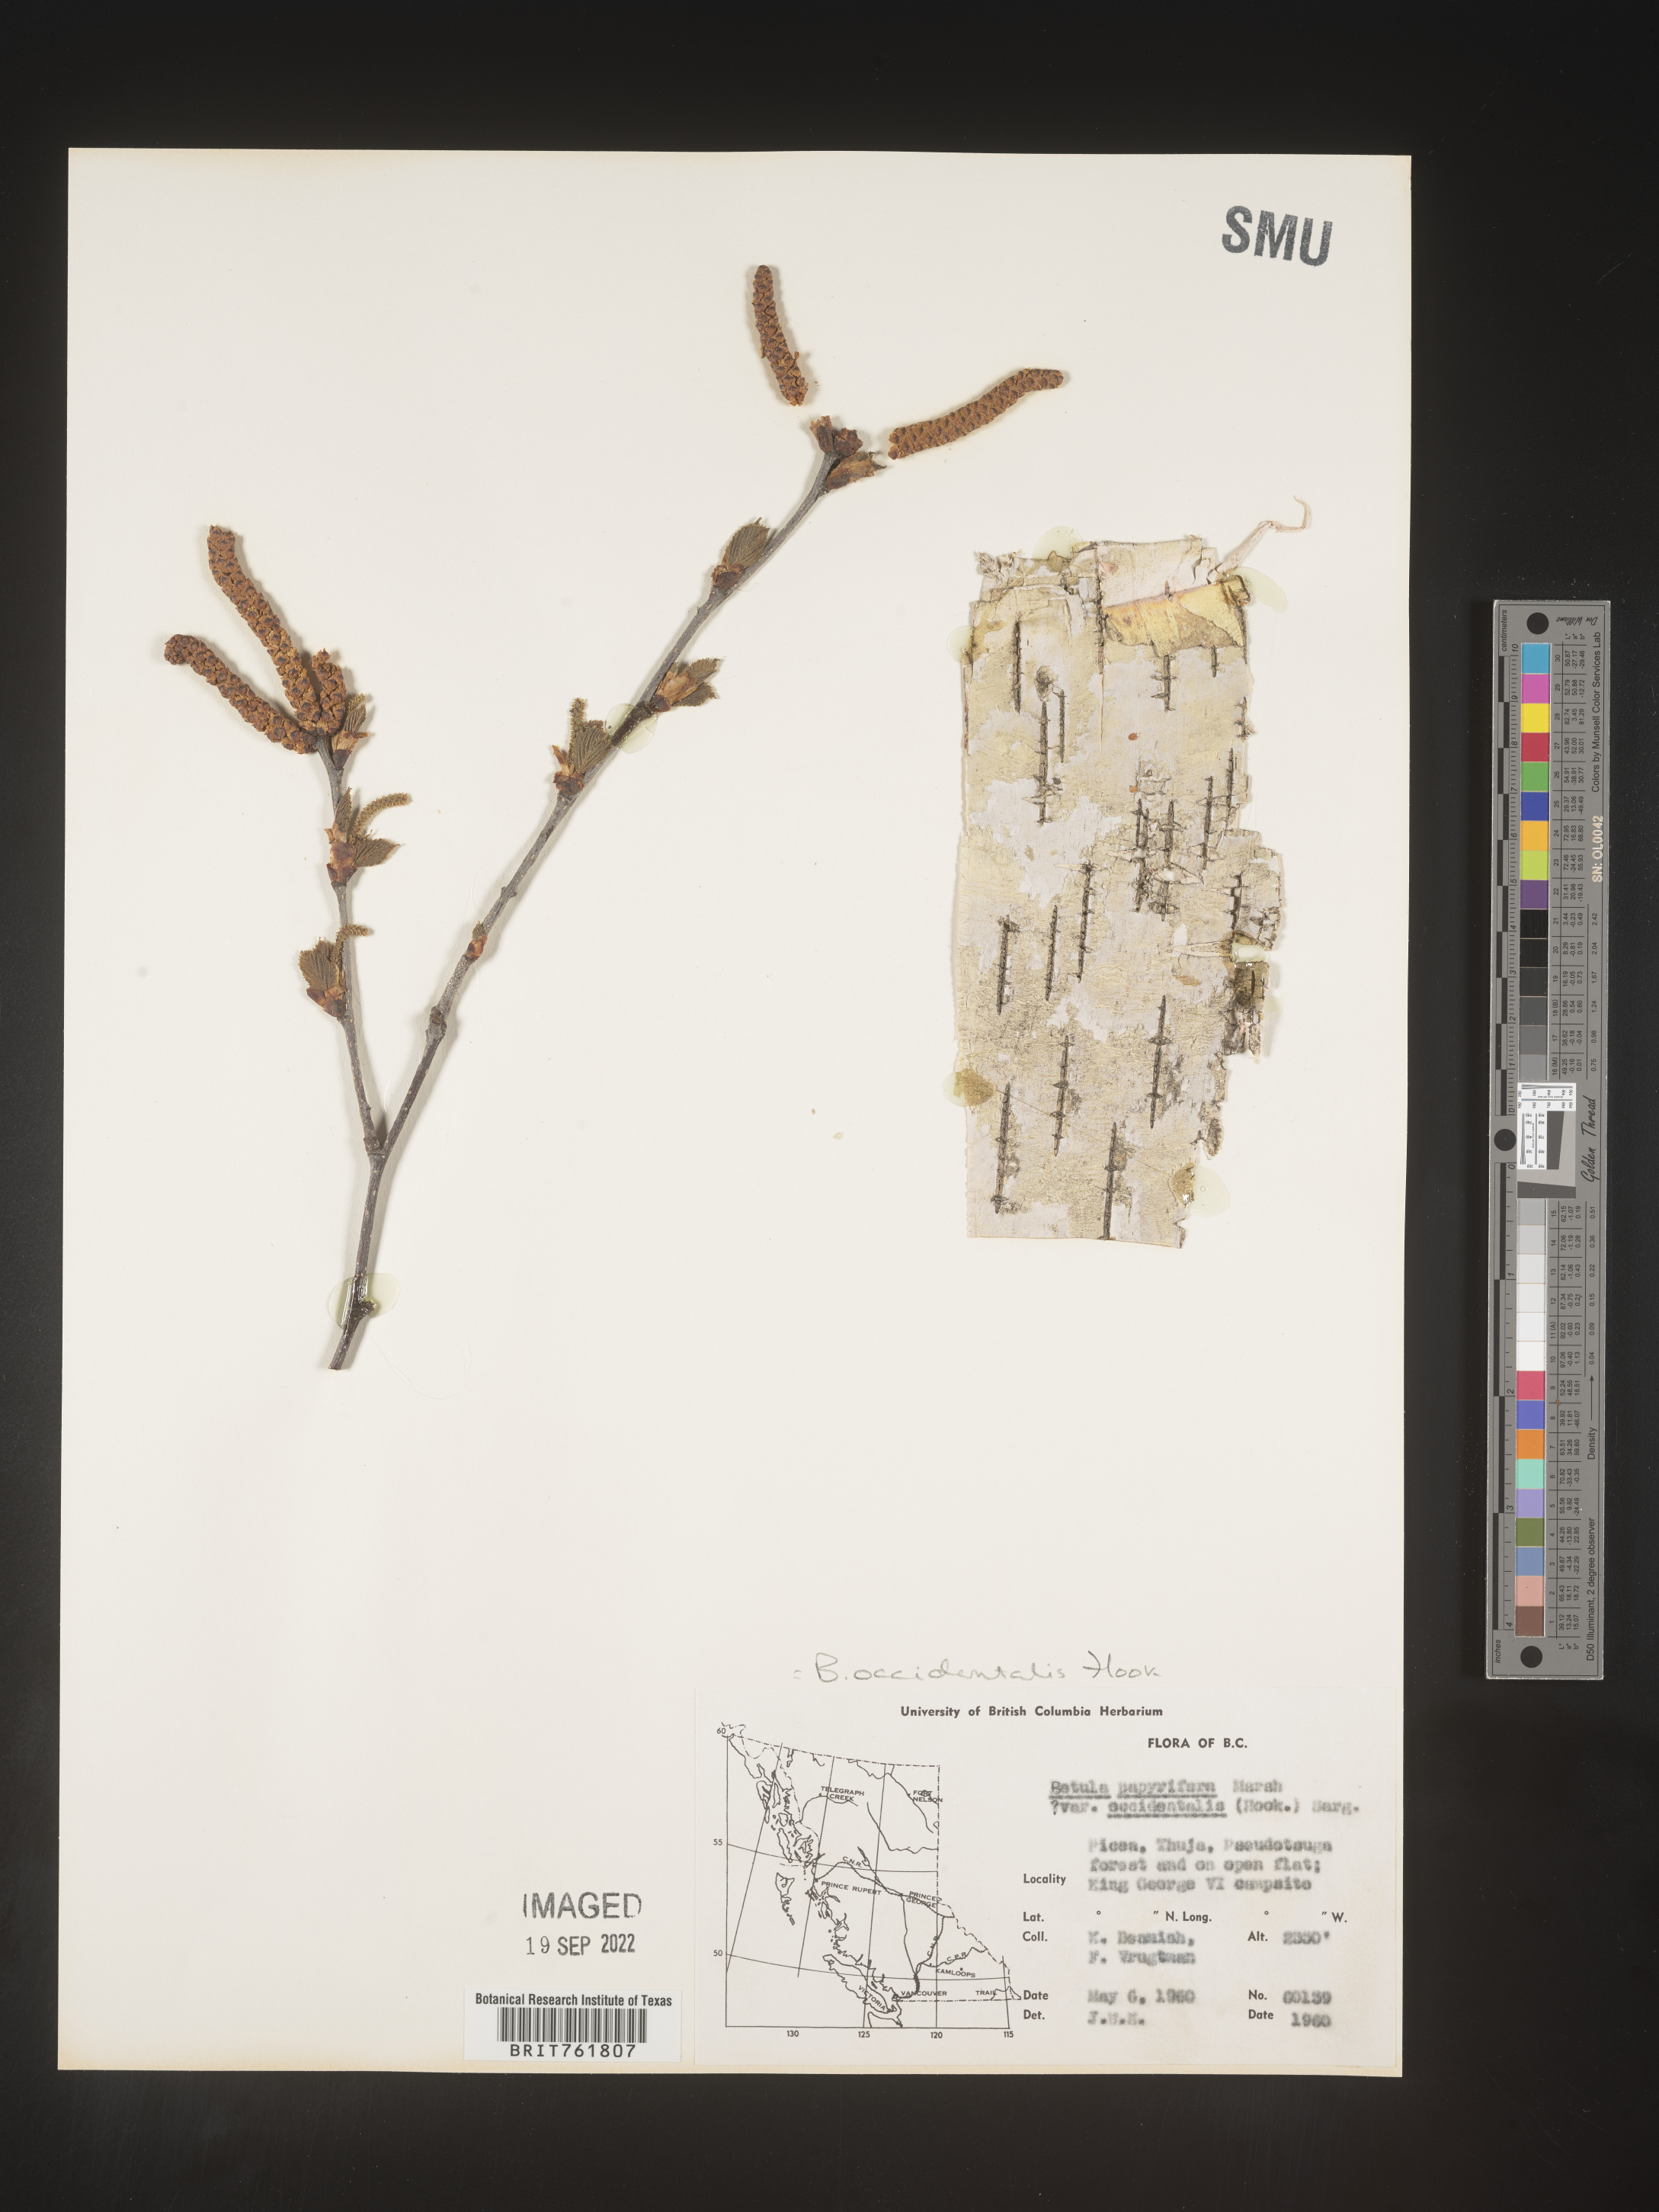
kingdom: Plantae
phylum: Tracheophyta
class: Magnoliopsida
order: Fagales
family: Betulaceae
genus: Betula
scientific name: Betula occidentalis
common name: River birch
